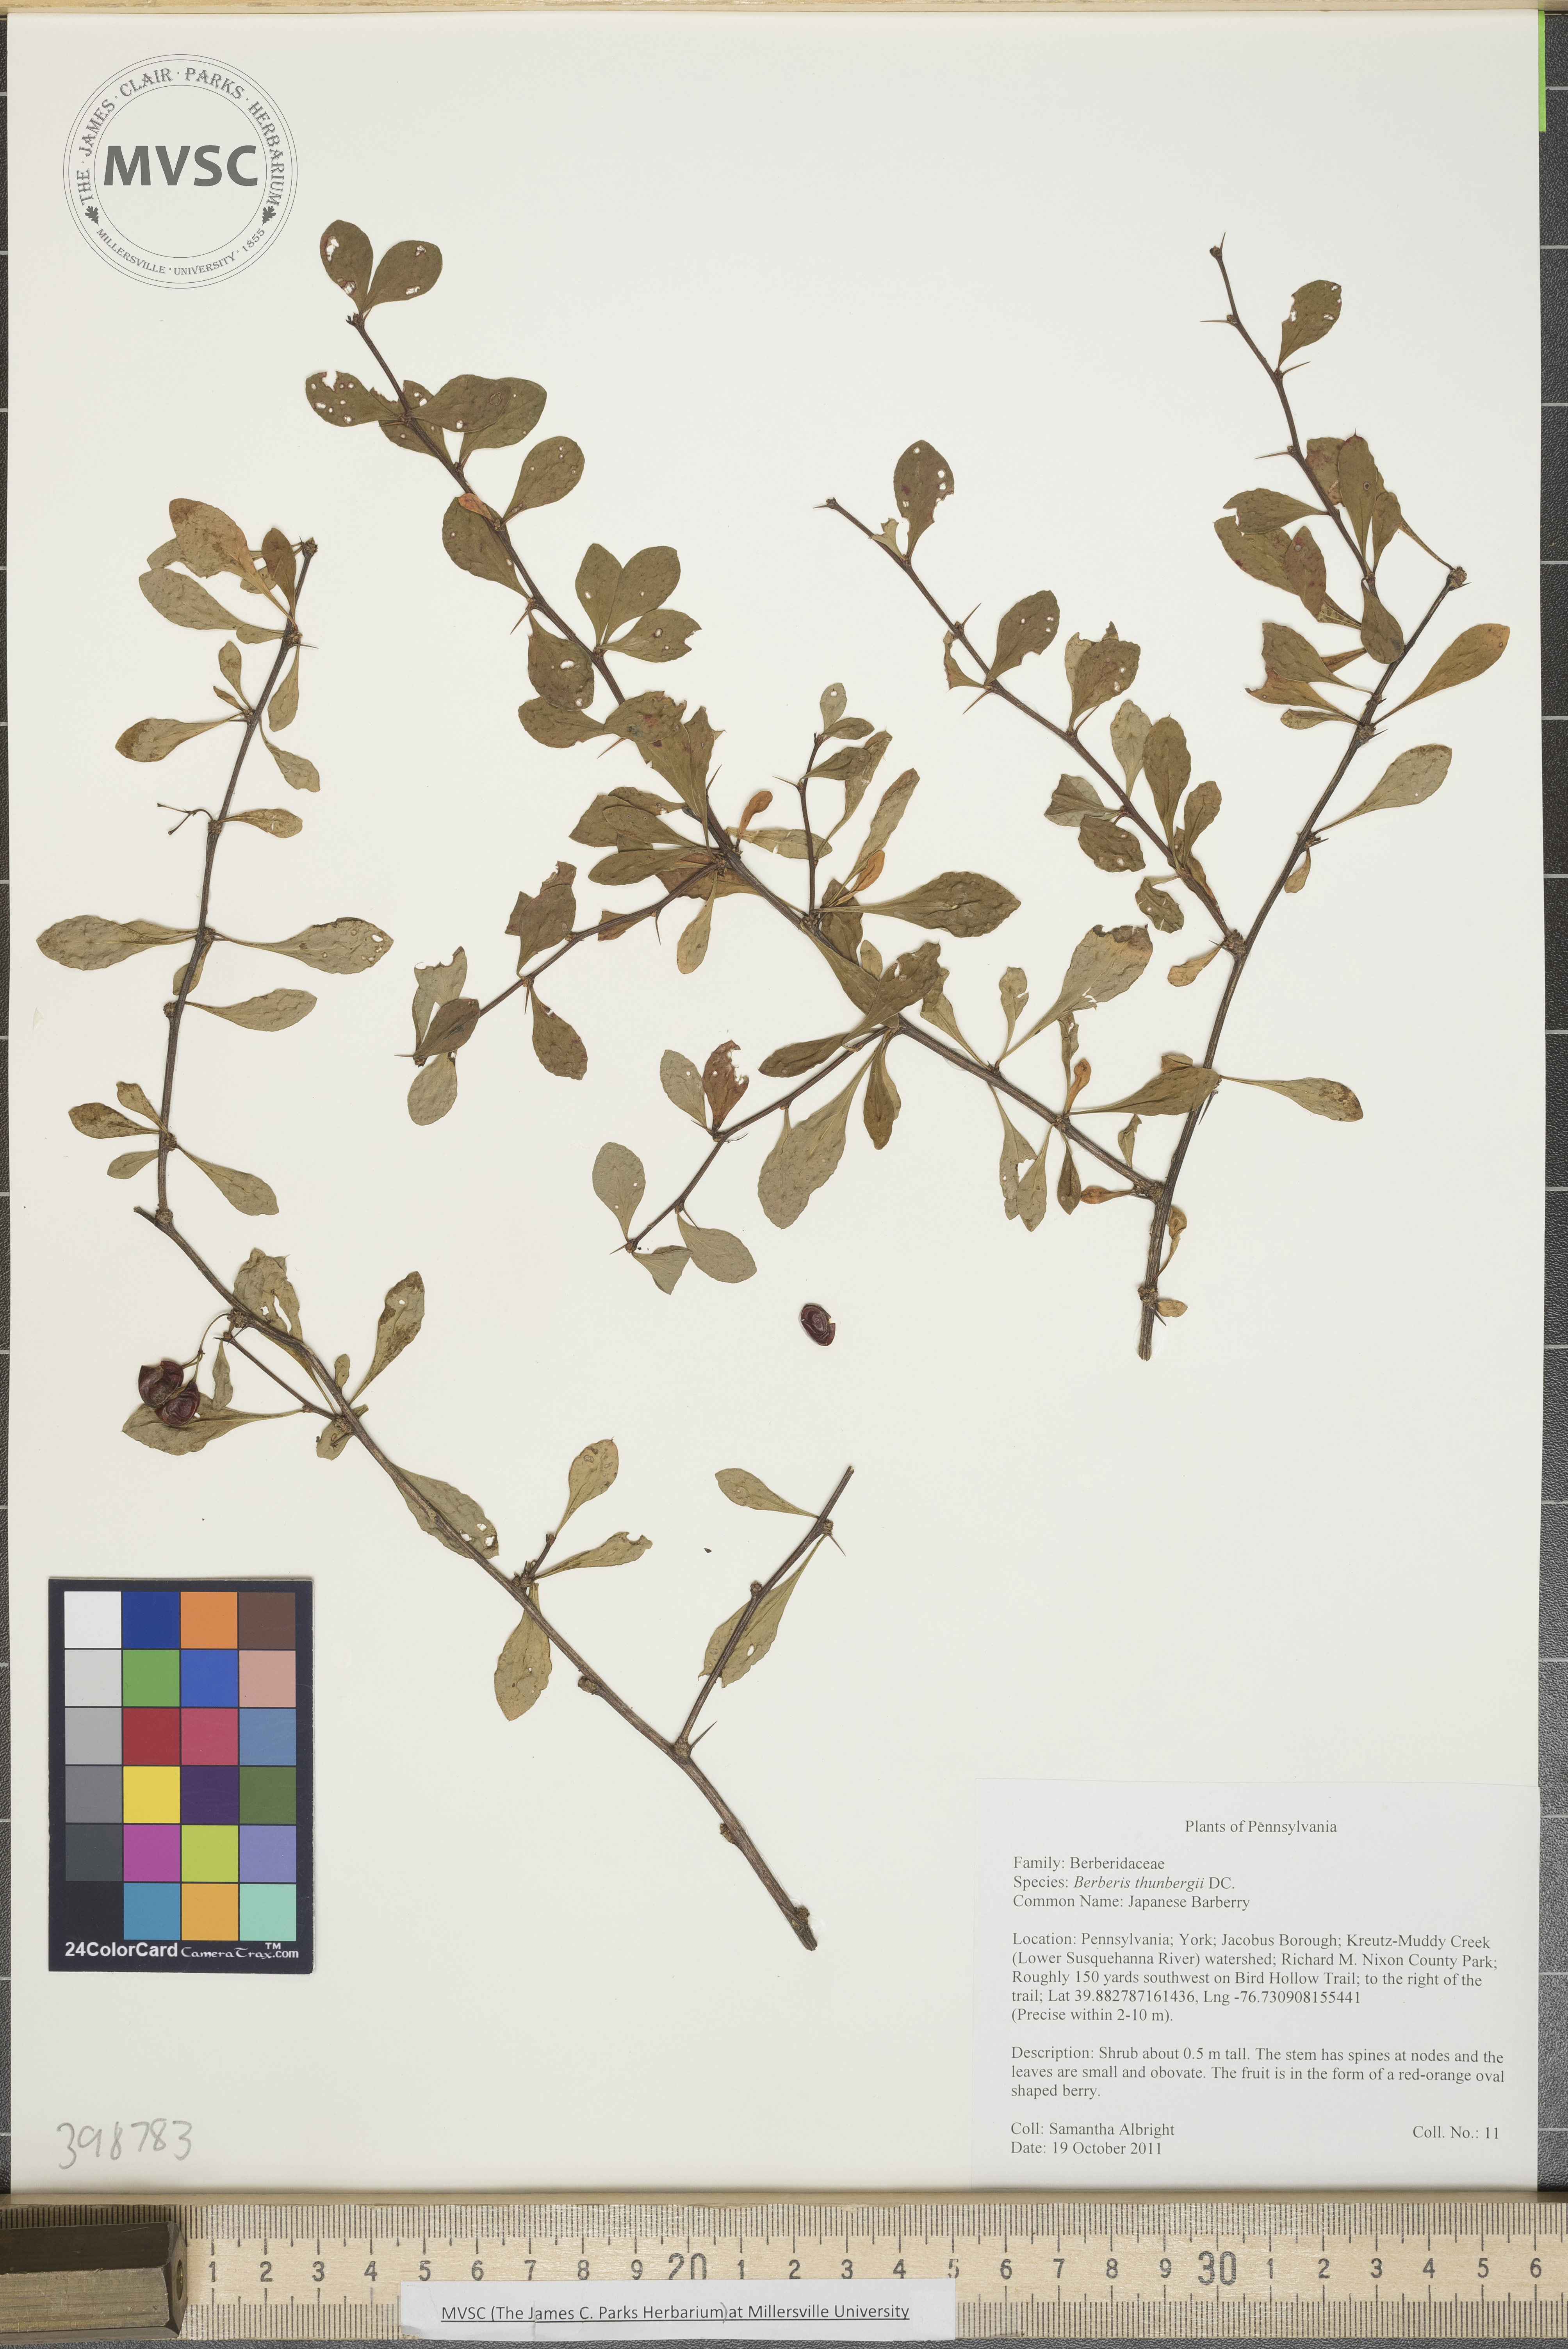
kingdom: Plantae
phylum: Tracheophyta
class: Magnoliopsida
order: Ranunculales
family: Berberidaceae
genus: Berberis
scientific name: Berberis thunbergii
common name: Japanese barberry
